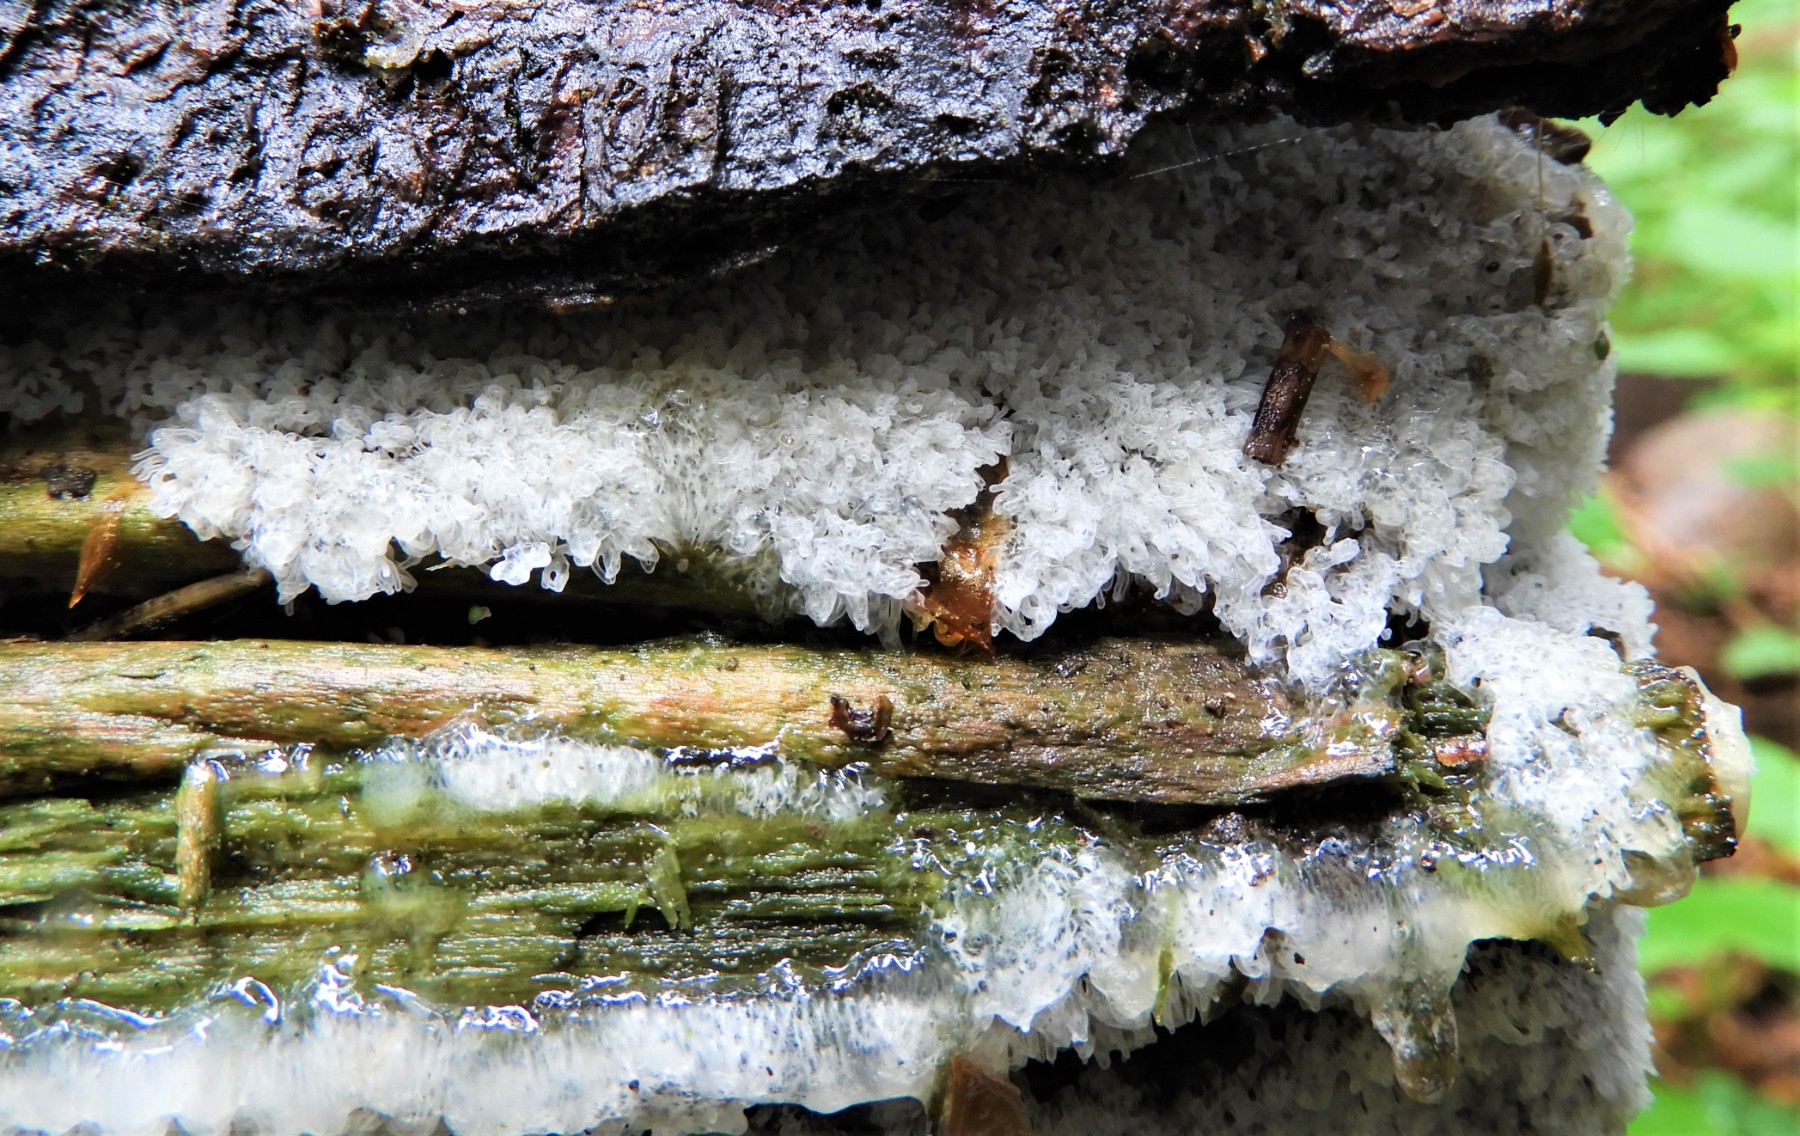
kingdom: Protozoa
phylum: Mycetozoa
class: Protosteliomycetes
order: Ceratiomyxales
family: Ceratiomyxaceae
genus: Ceratiomyxa
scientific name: Ceratiomyxa fruticulosa
